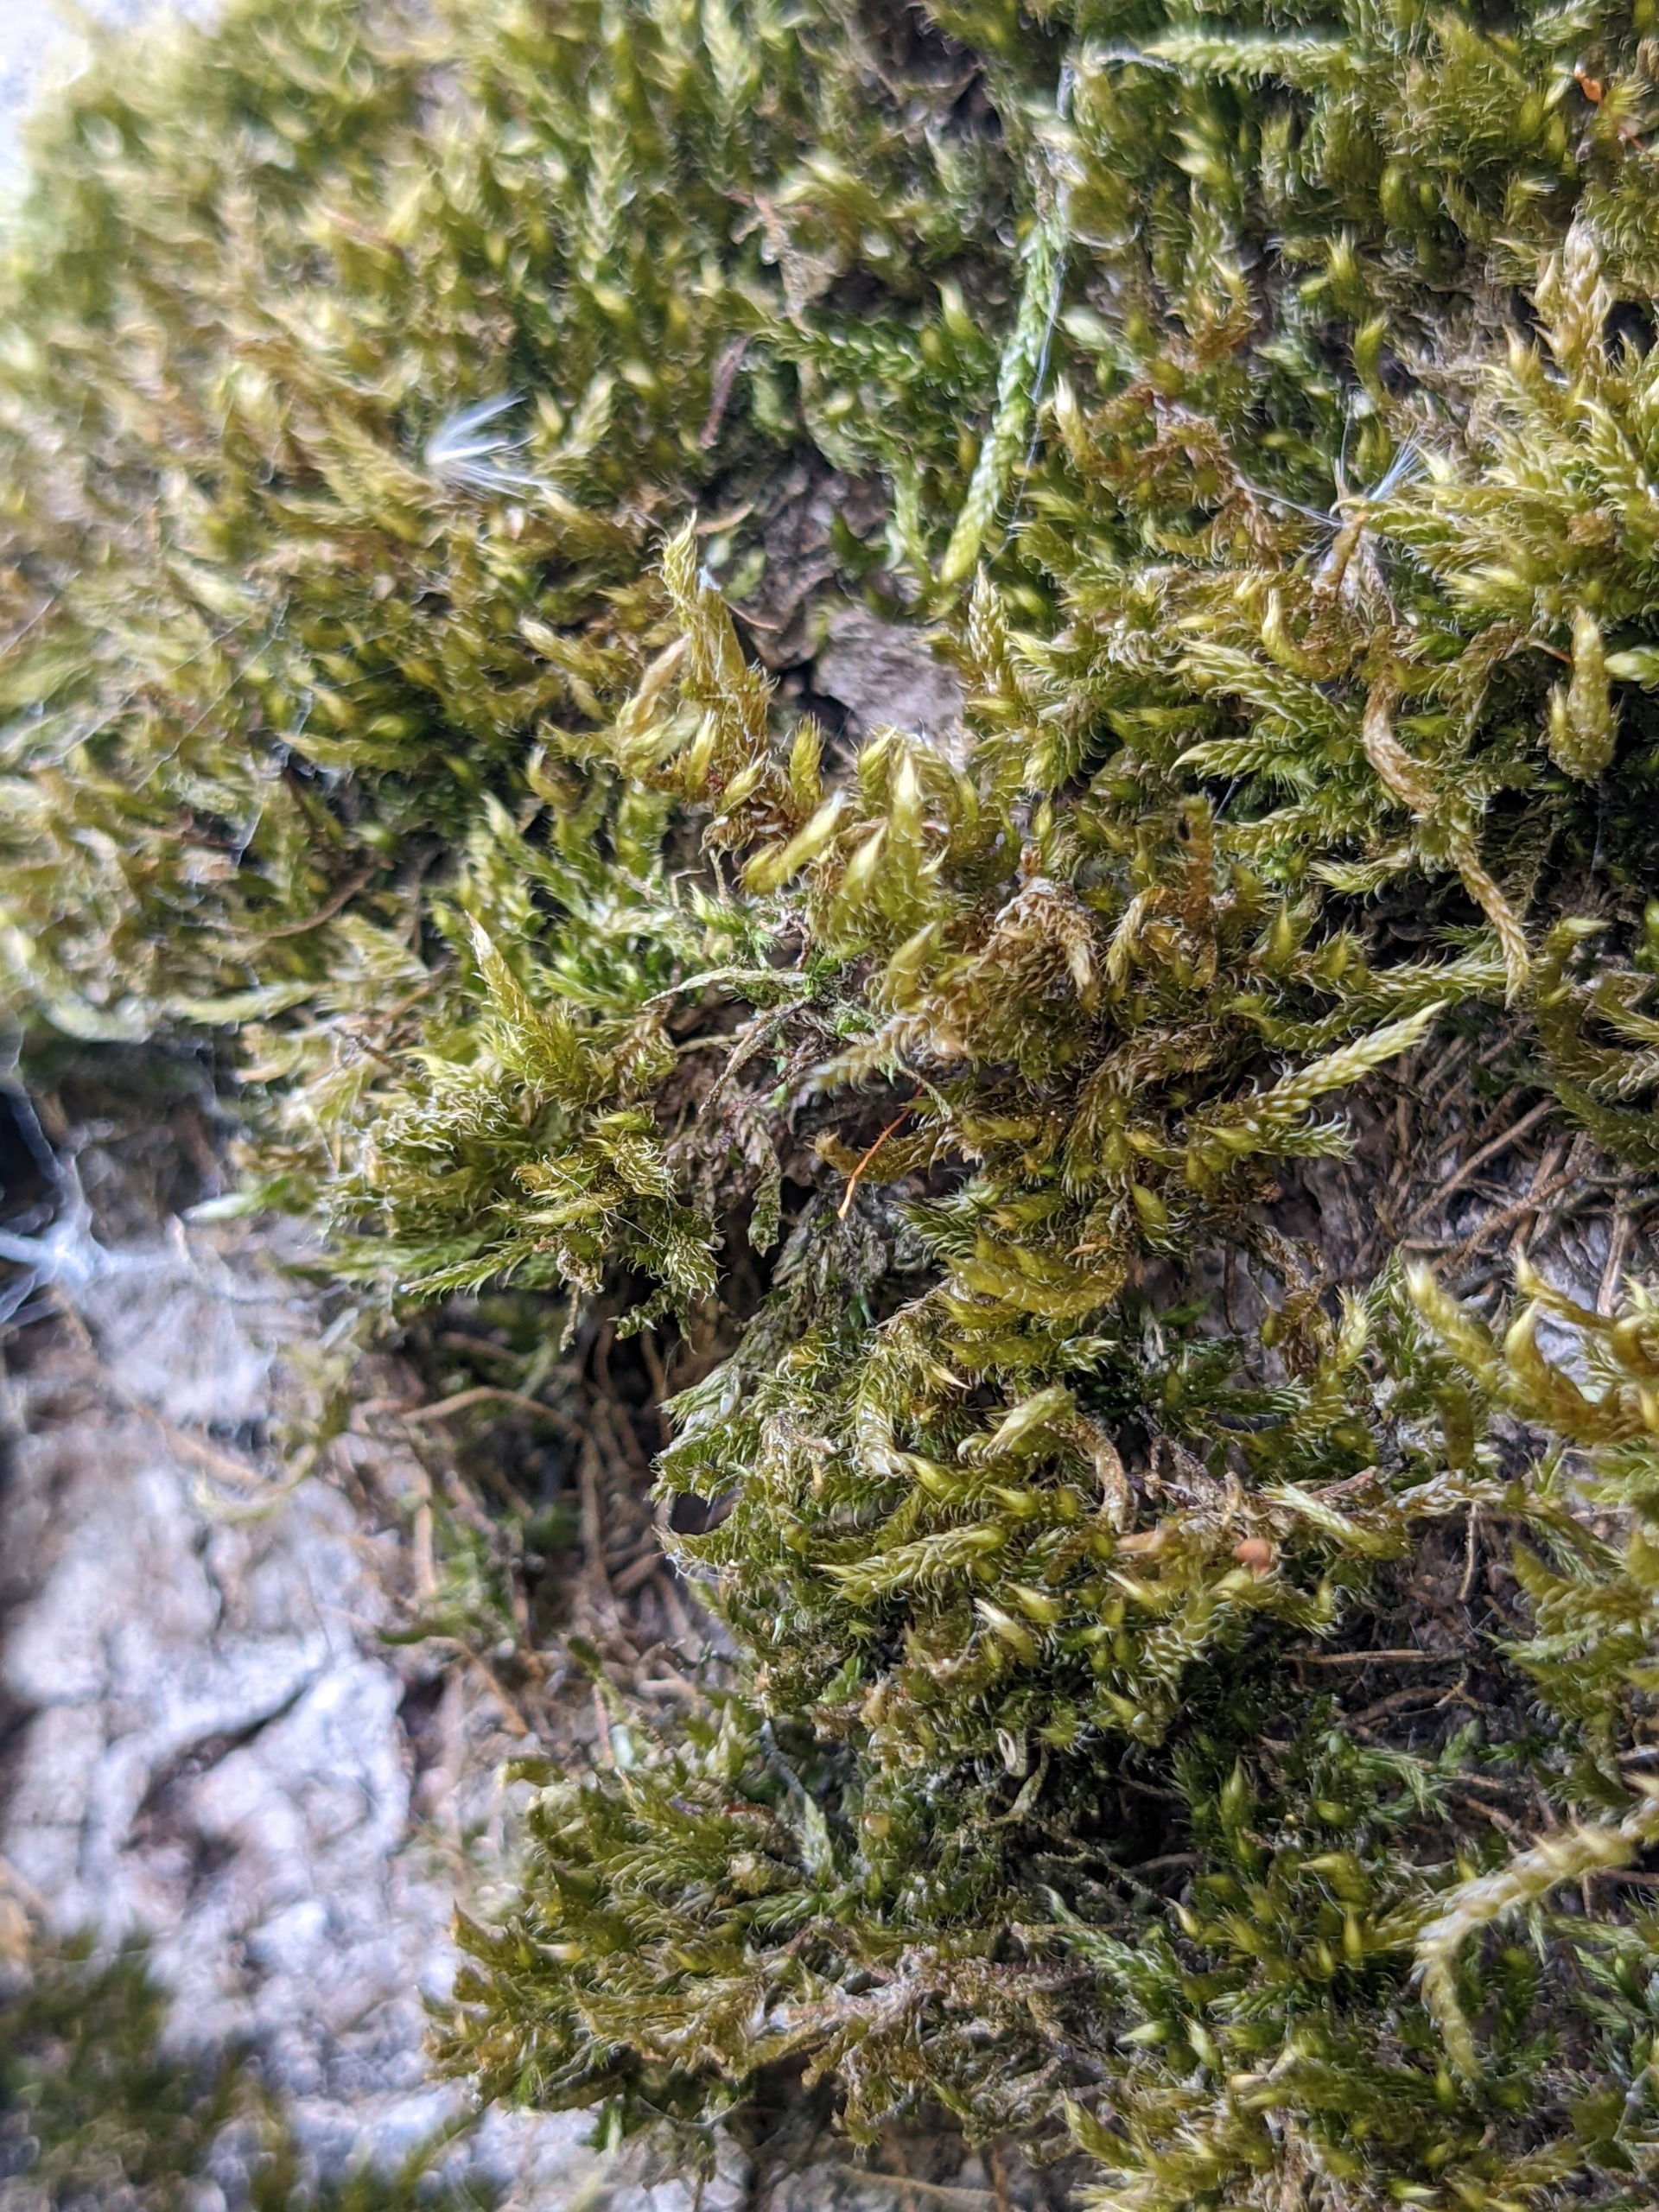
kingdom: Plantae
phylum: Bryophyta
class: Bryopsida
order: Hypnales
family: Hypnaceae
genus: Hypnum
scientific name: Hypnum cupressiforme
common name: Almindelig cypresmos
